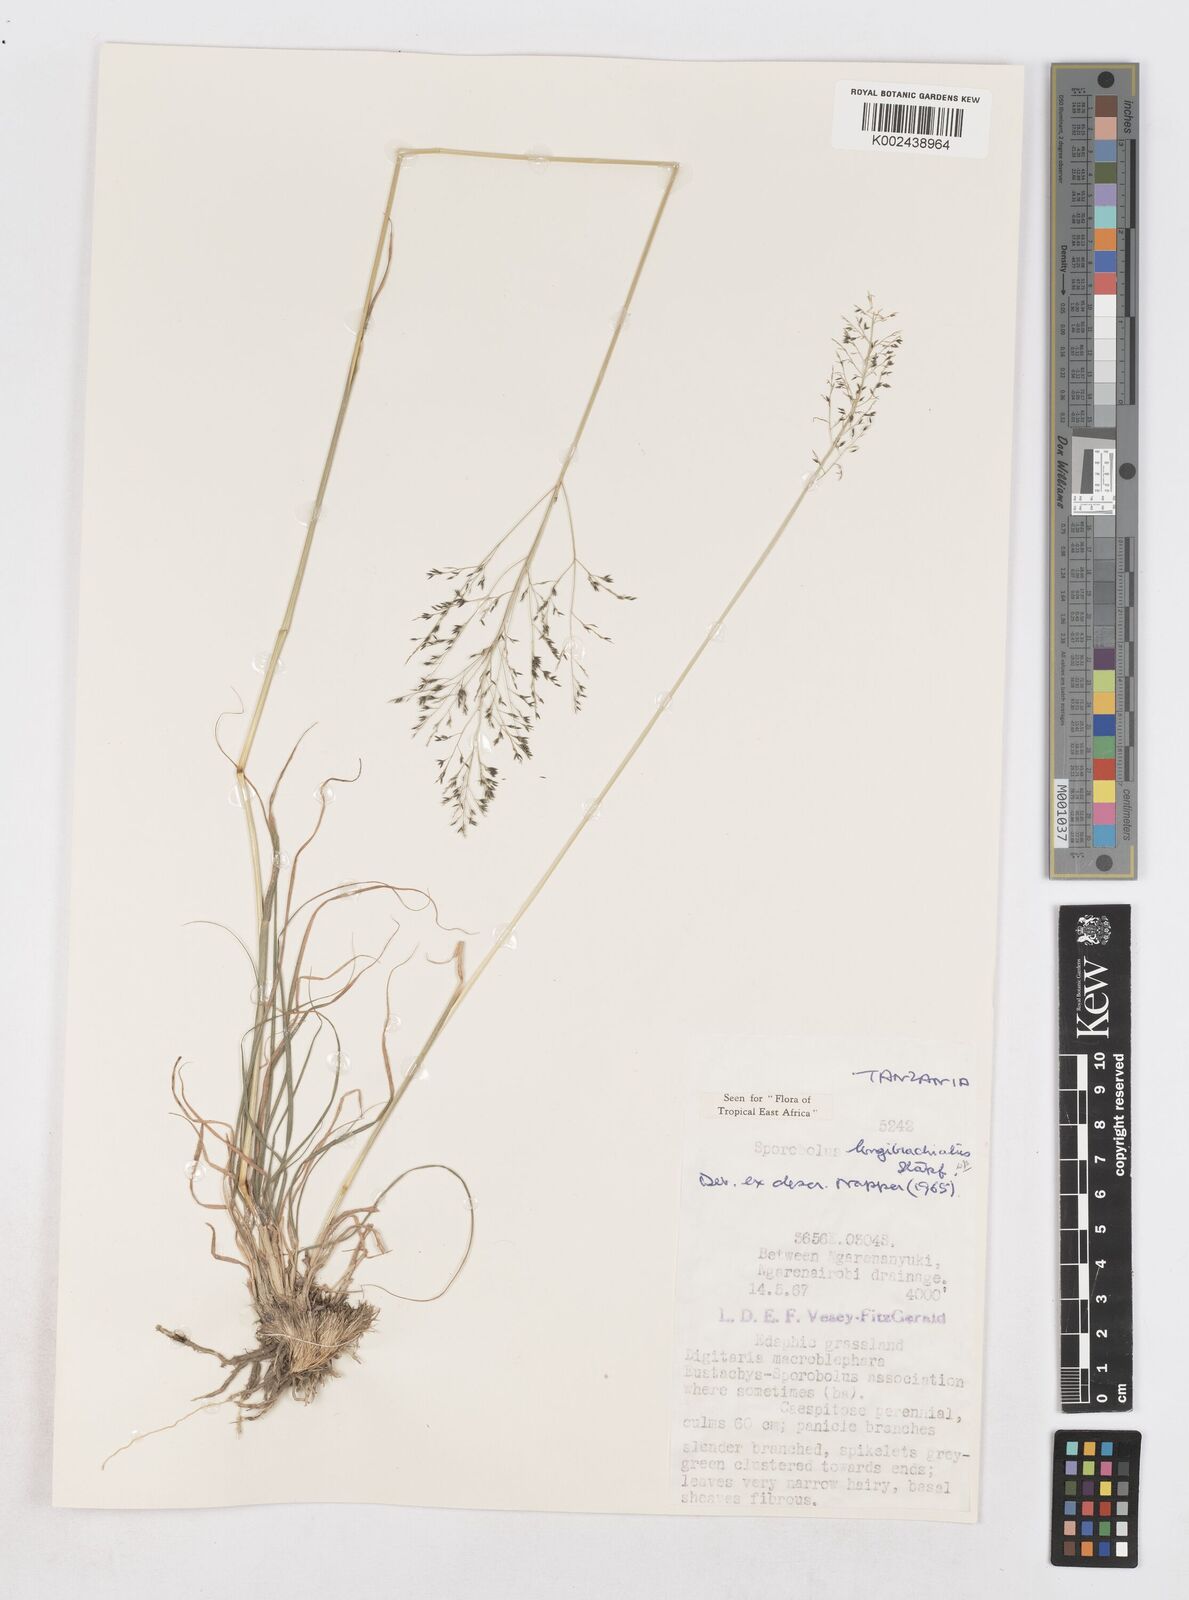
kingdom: Plantae
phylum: Tracheophyta
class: Liliopsida
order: Poales
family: Poaceae
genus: Sporobolus
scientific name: Sporobolus nervosus
